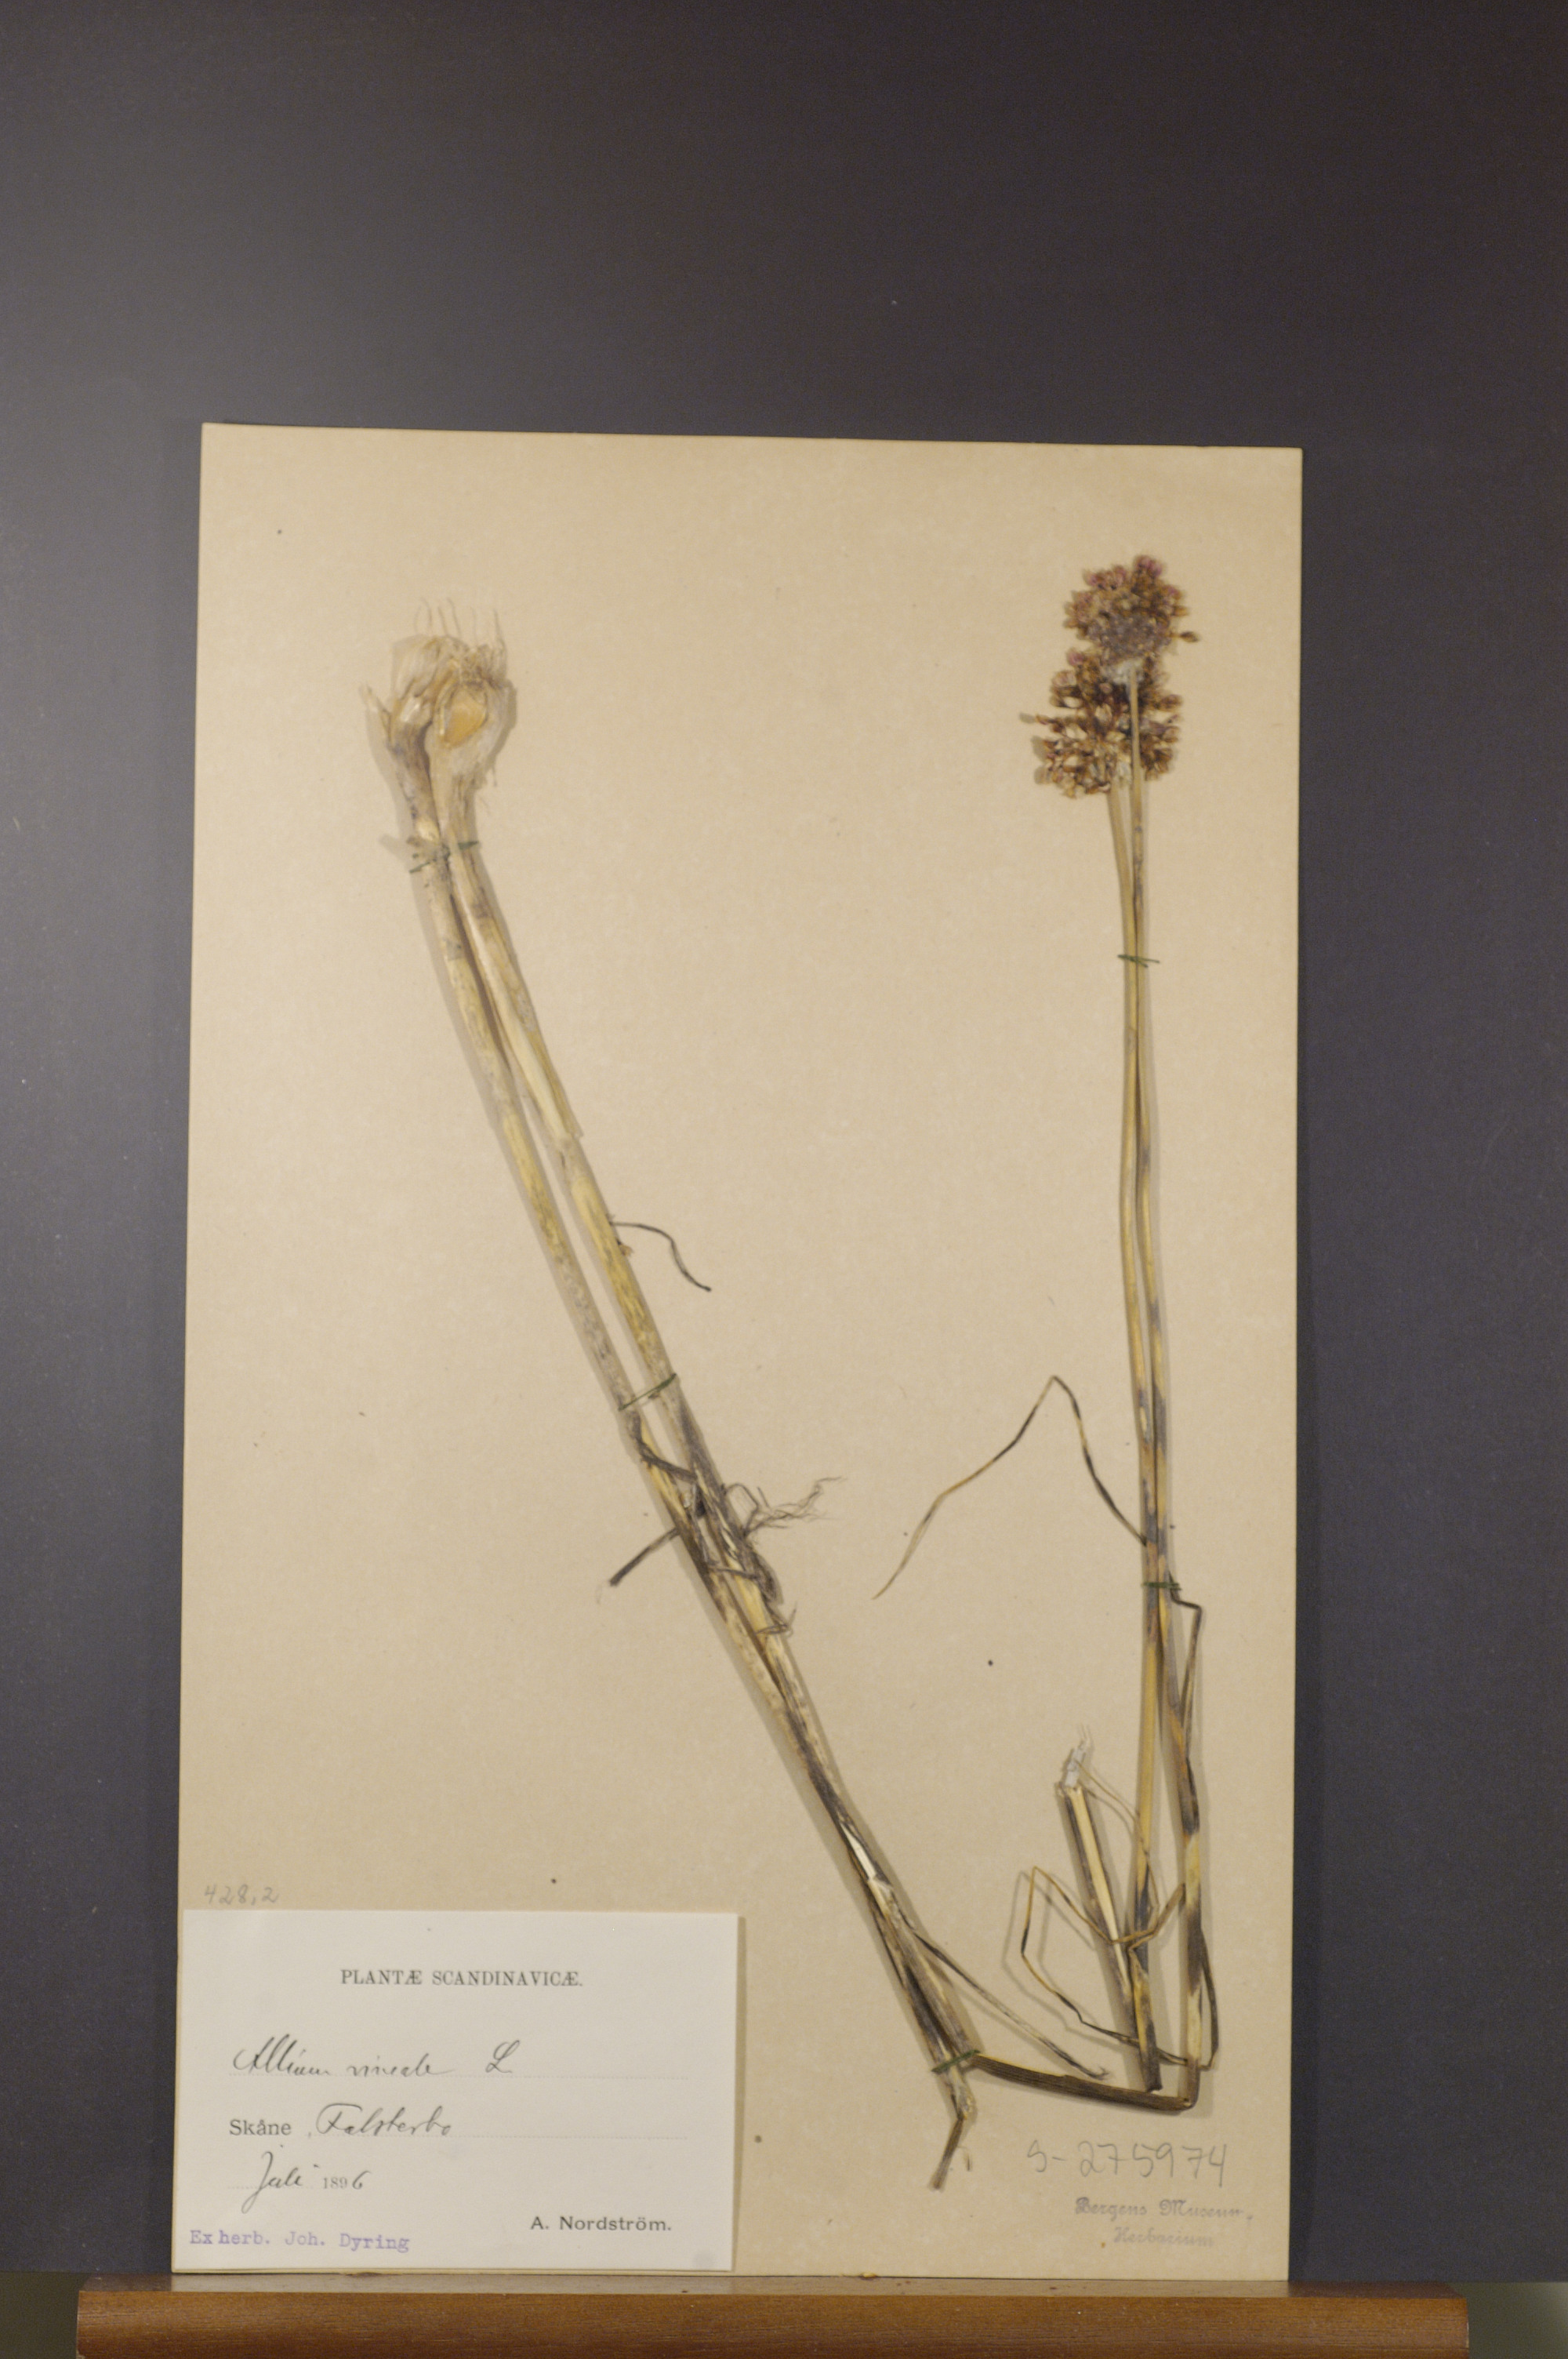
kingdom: Plantae
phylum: Tracheophyta
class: Liliopsida
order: Asparagales
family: Amaryllidaceae
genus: Allium
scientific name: Allium vineale
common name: Crow garlic
